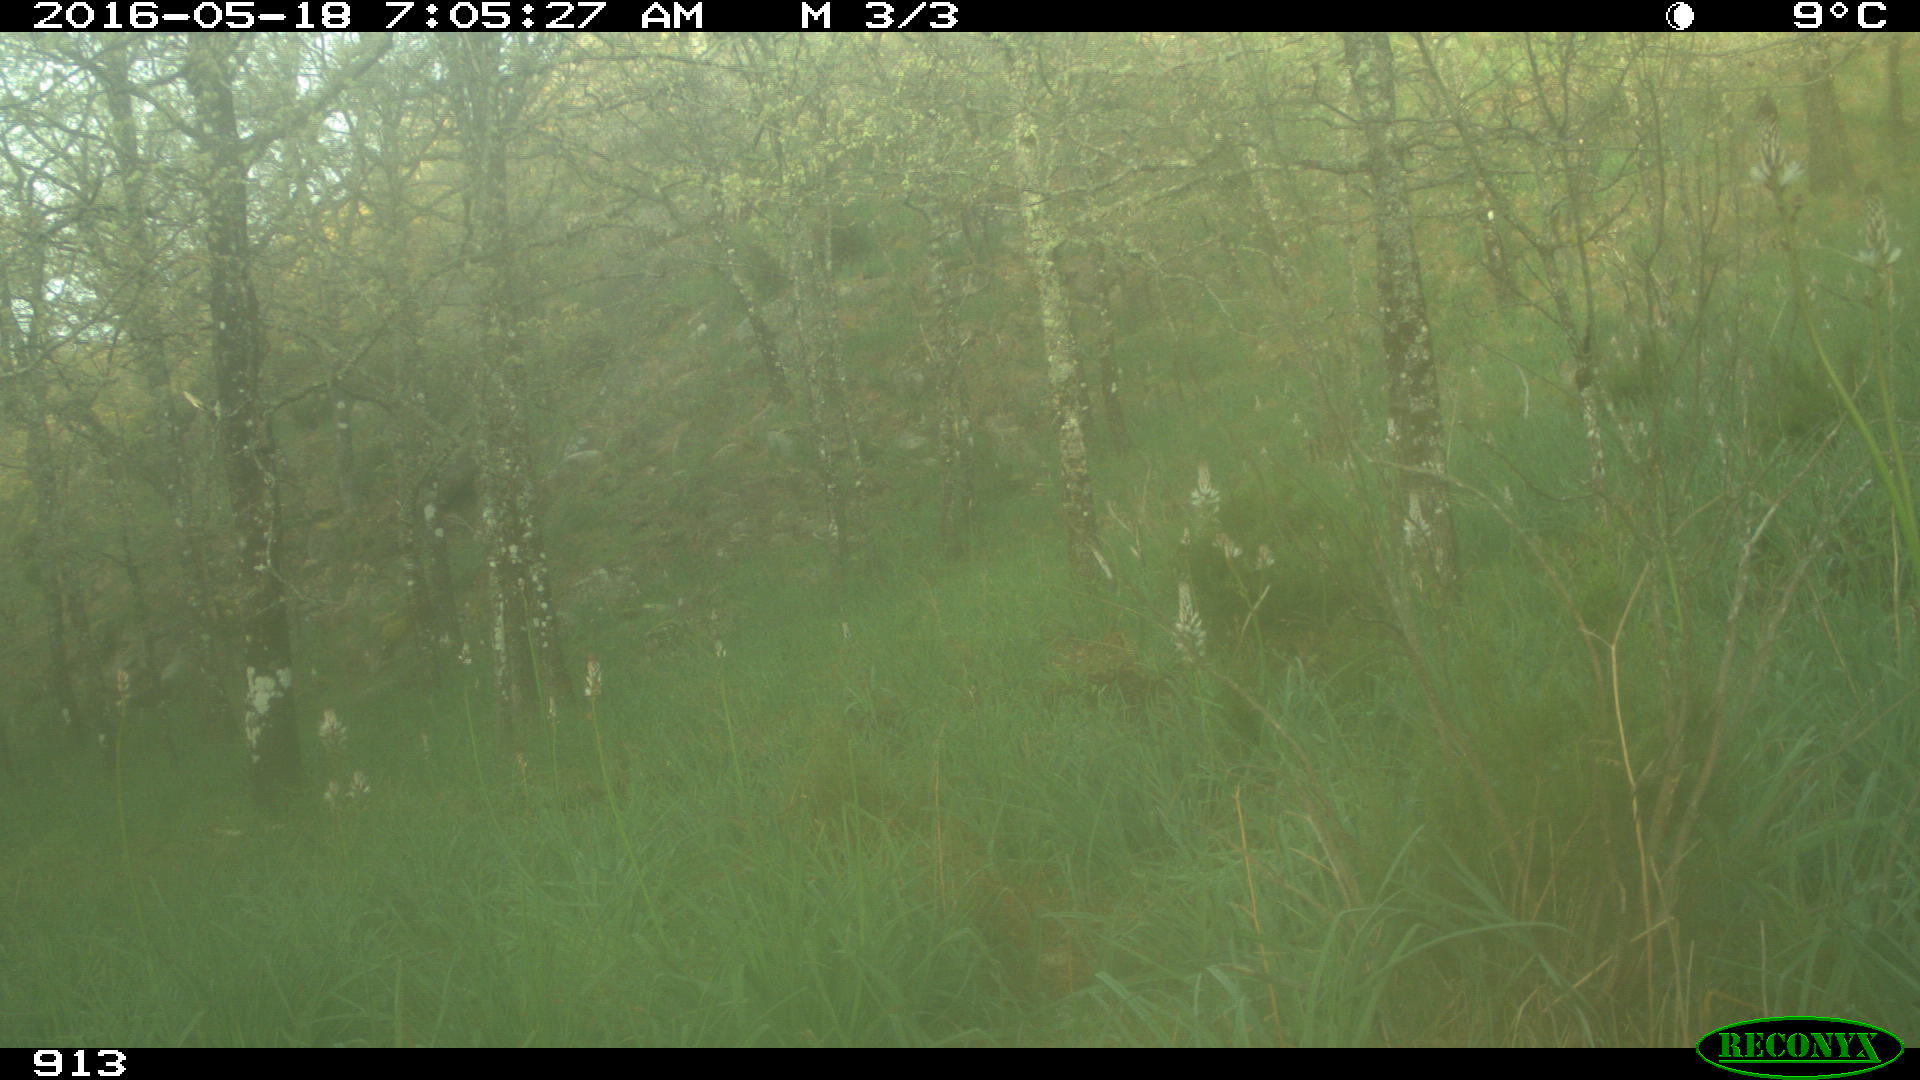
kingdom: Animalia
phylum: Chordata
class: Mammalia
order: Perissodactyla
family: Equidae
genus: Equus
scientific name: Equus caballus
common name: Horse
